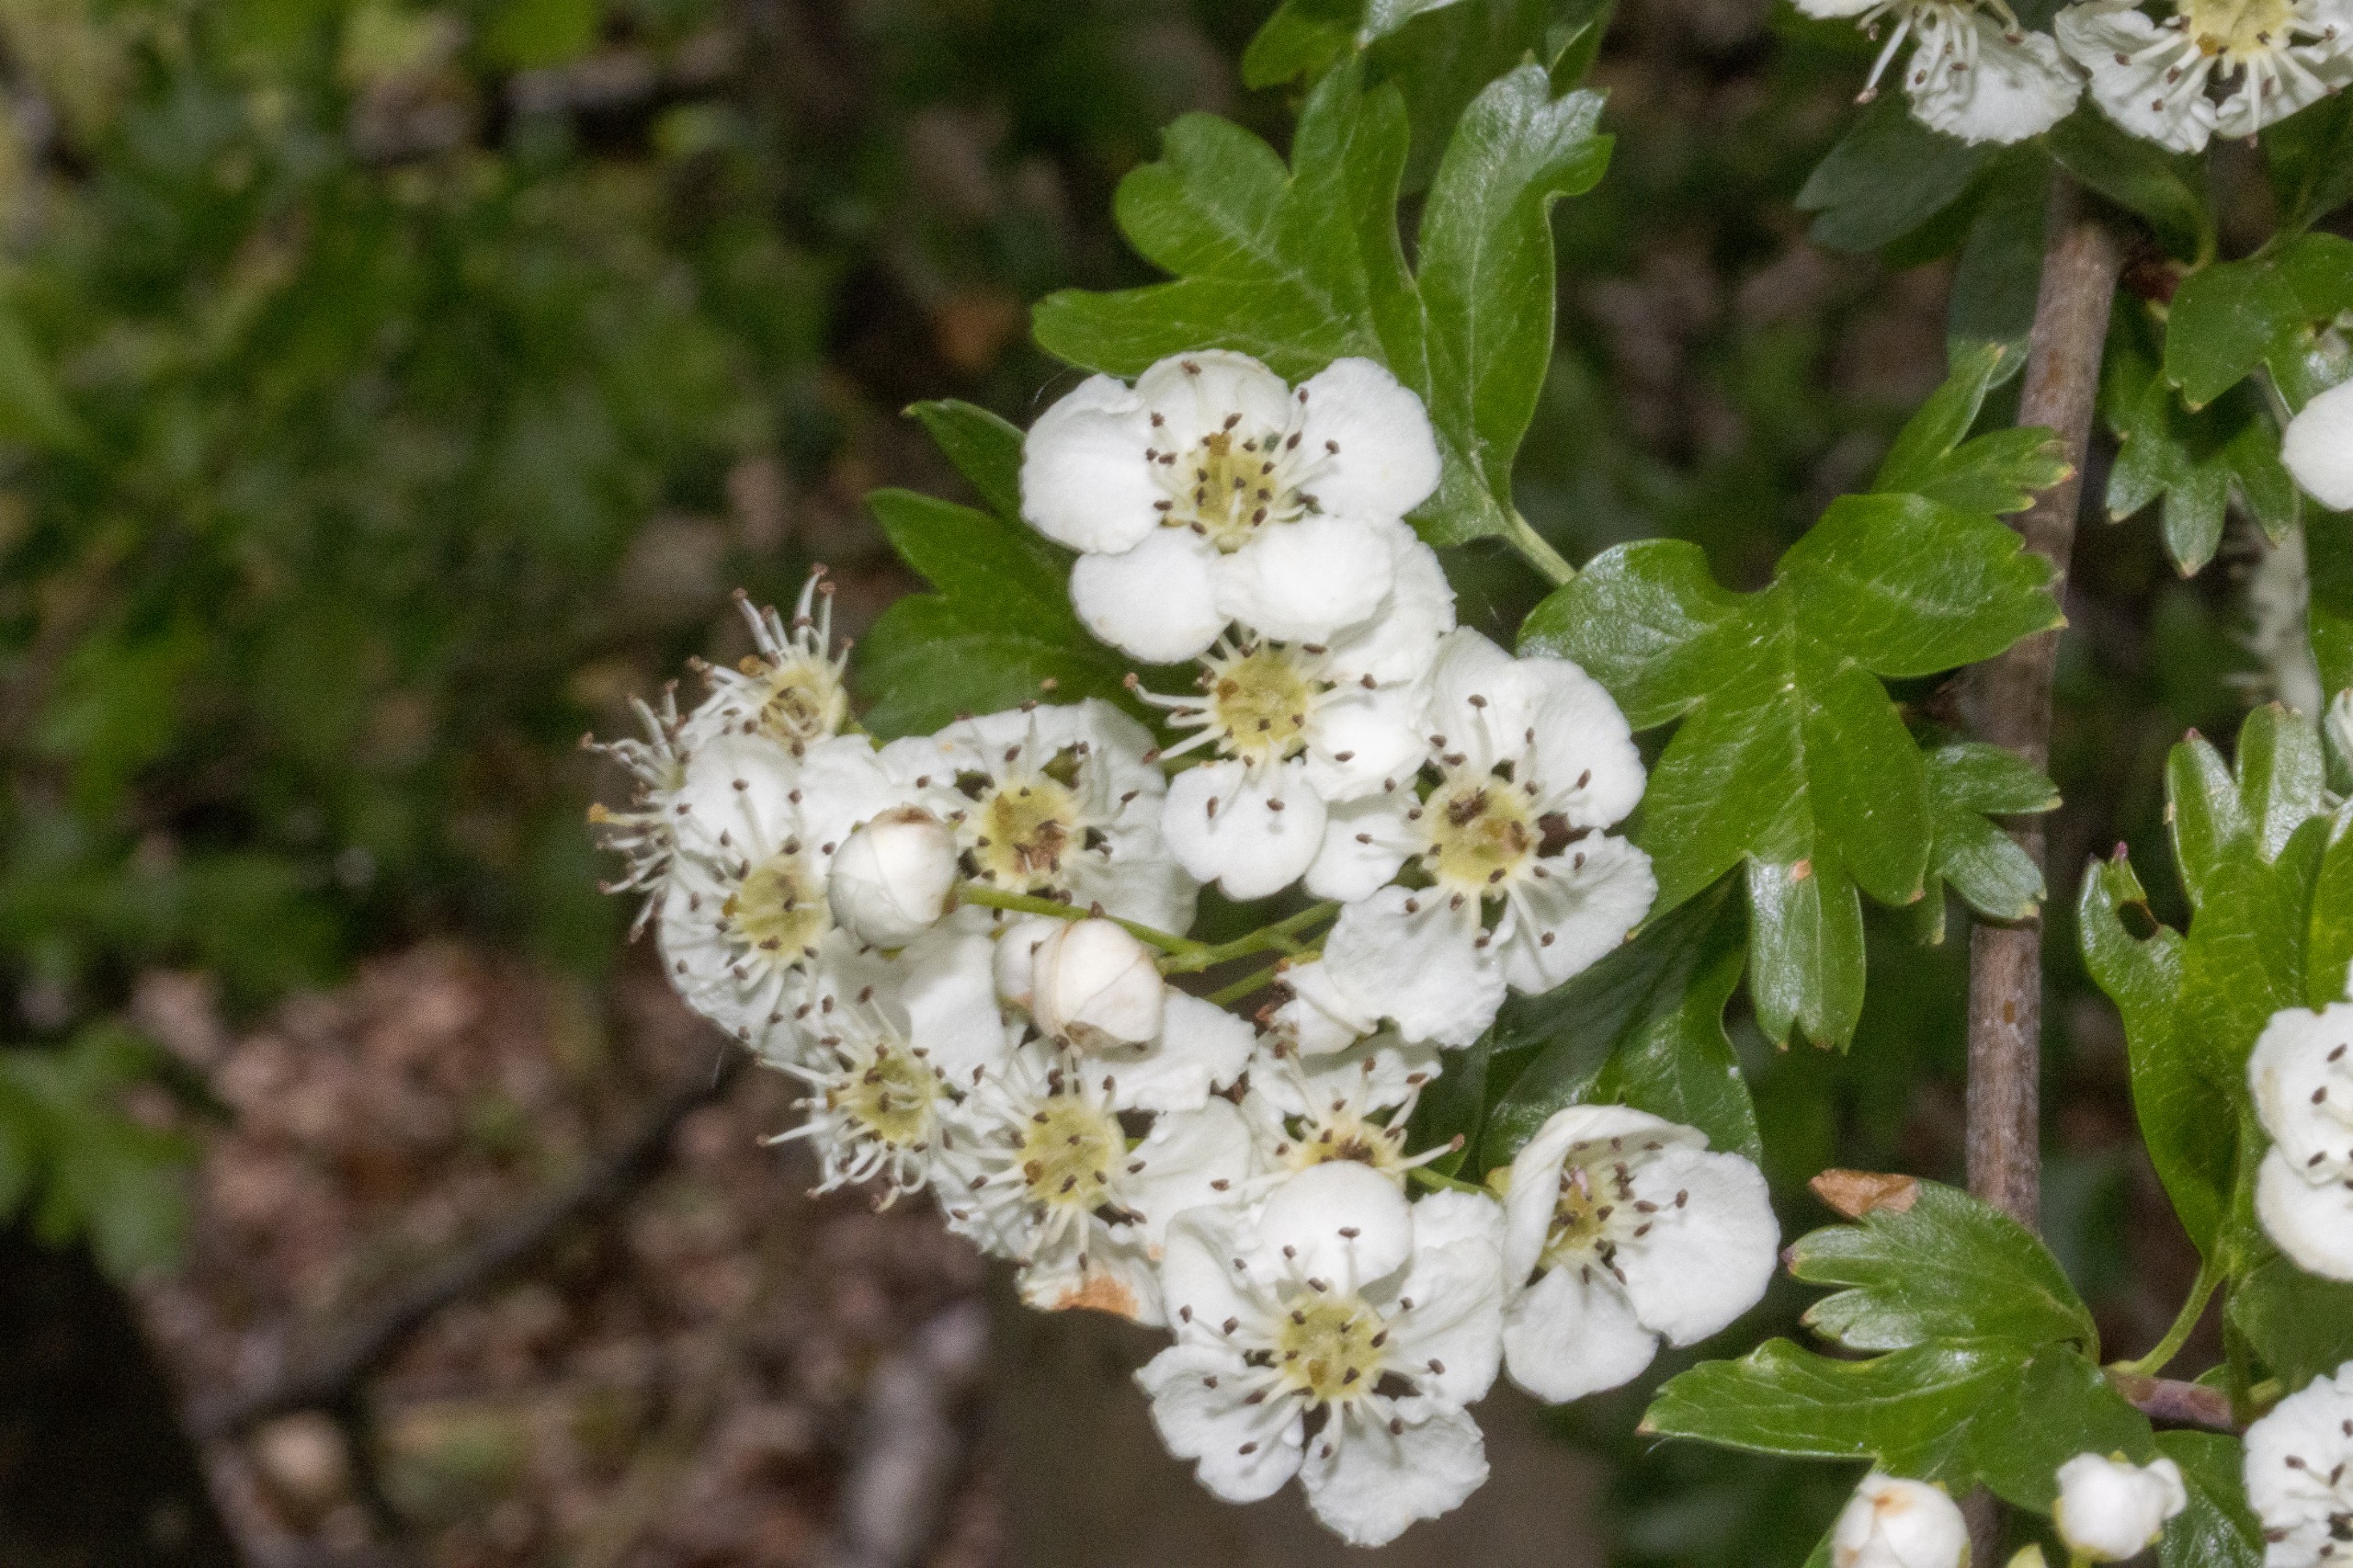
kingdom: Plantae
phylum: Tracheophyta
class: Magnoliopsida
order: Rosales
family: Rosaceae
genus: Crataegus
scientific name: Crataegus monogyna
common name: Engriflet hvidtjørn
